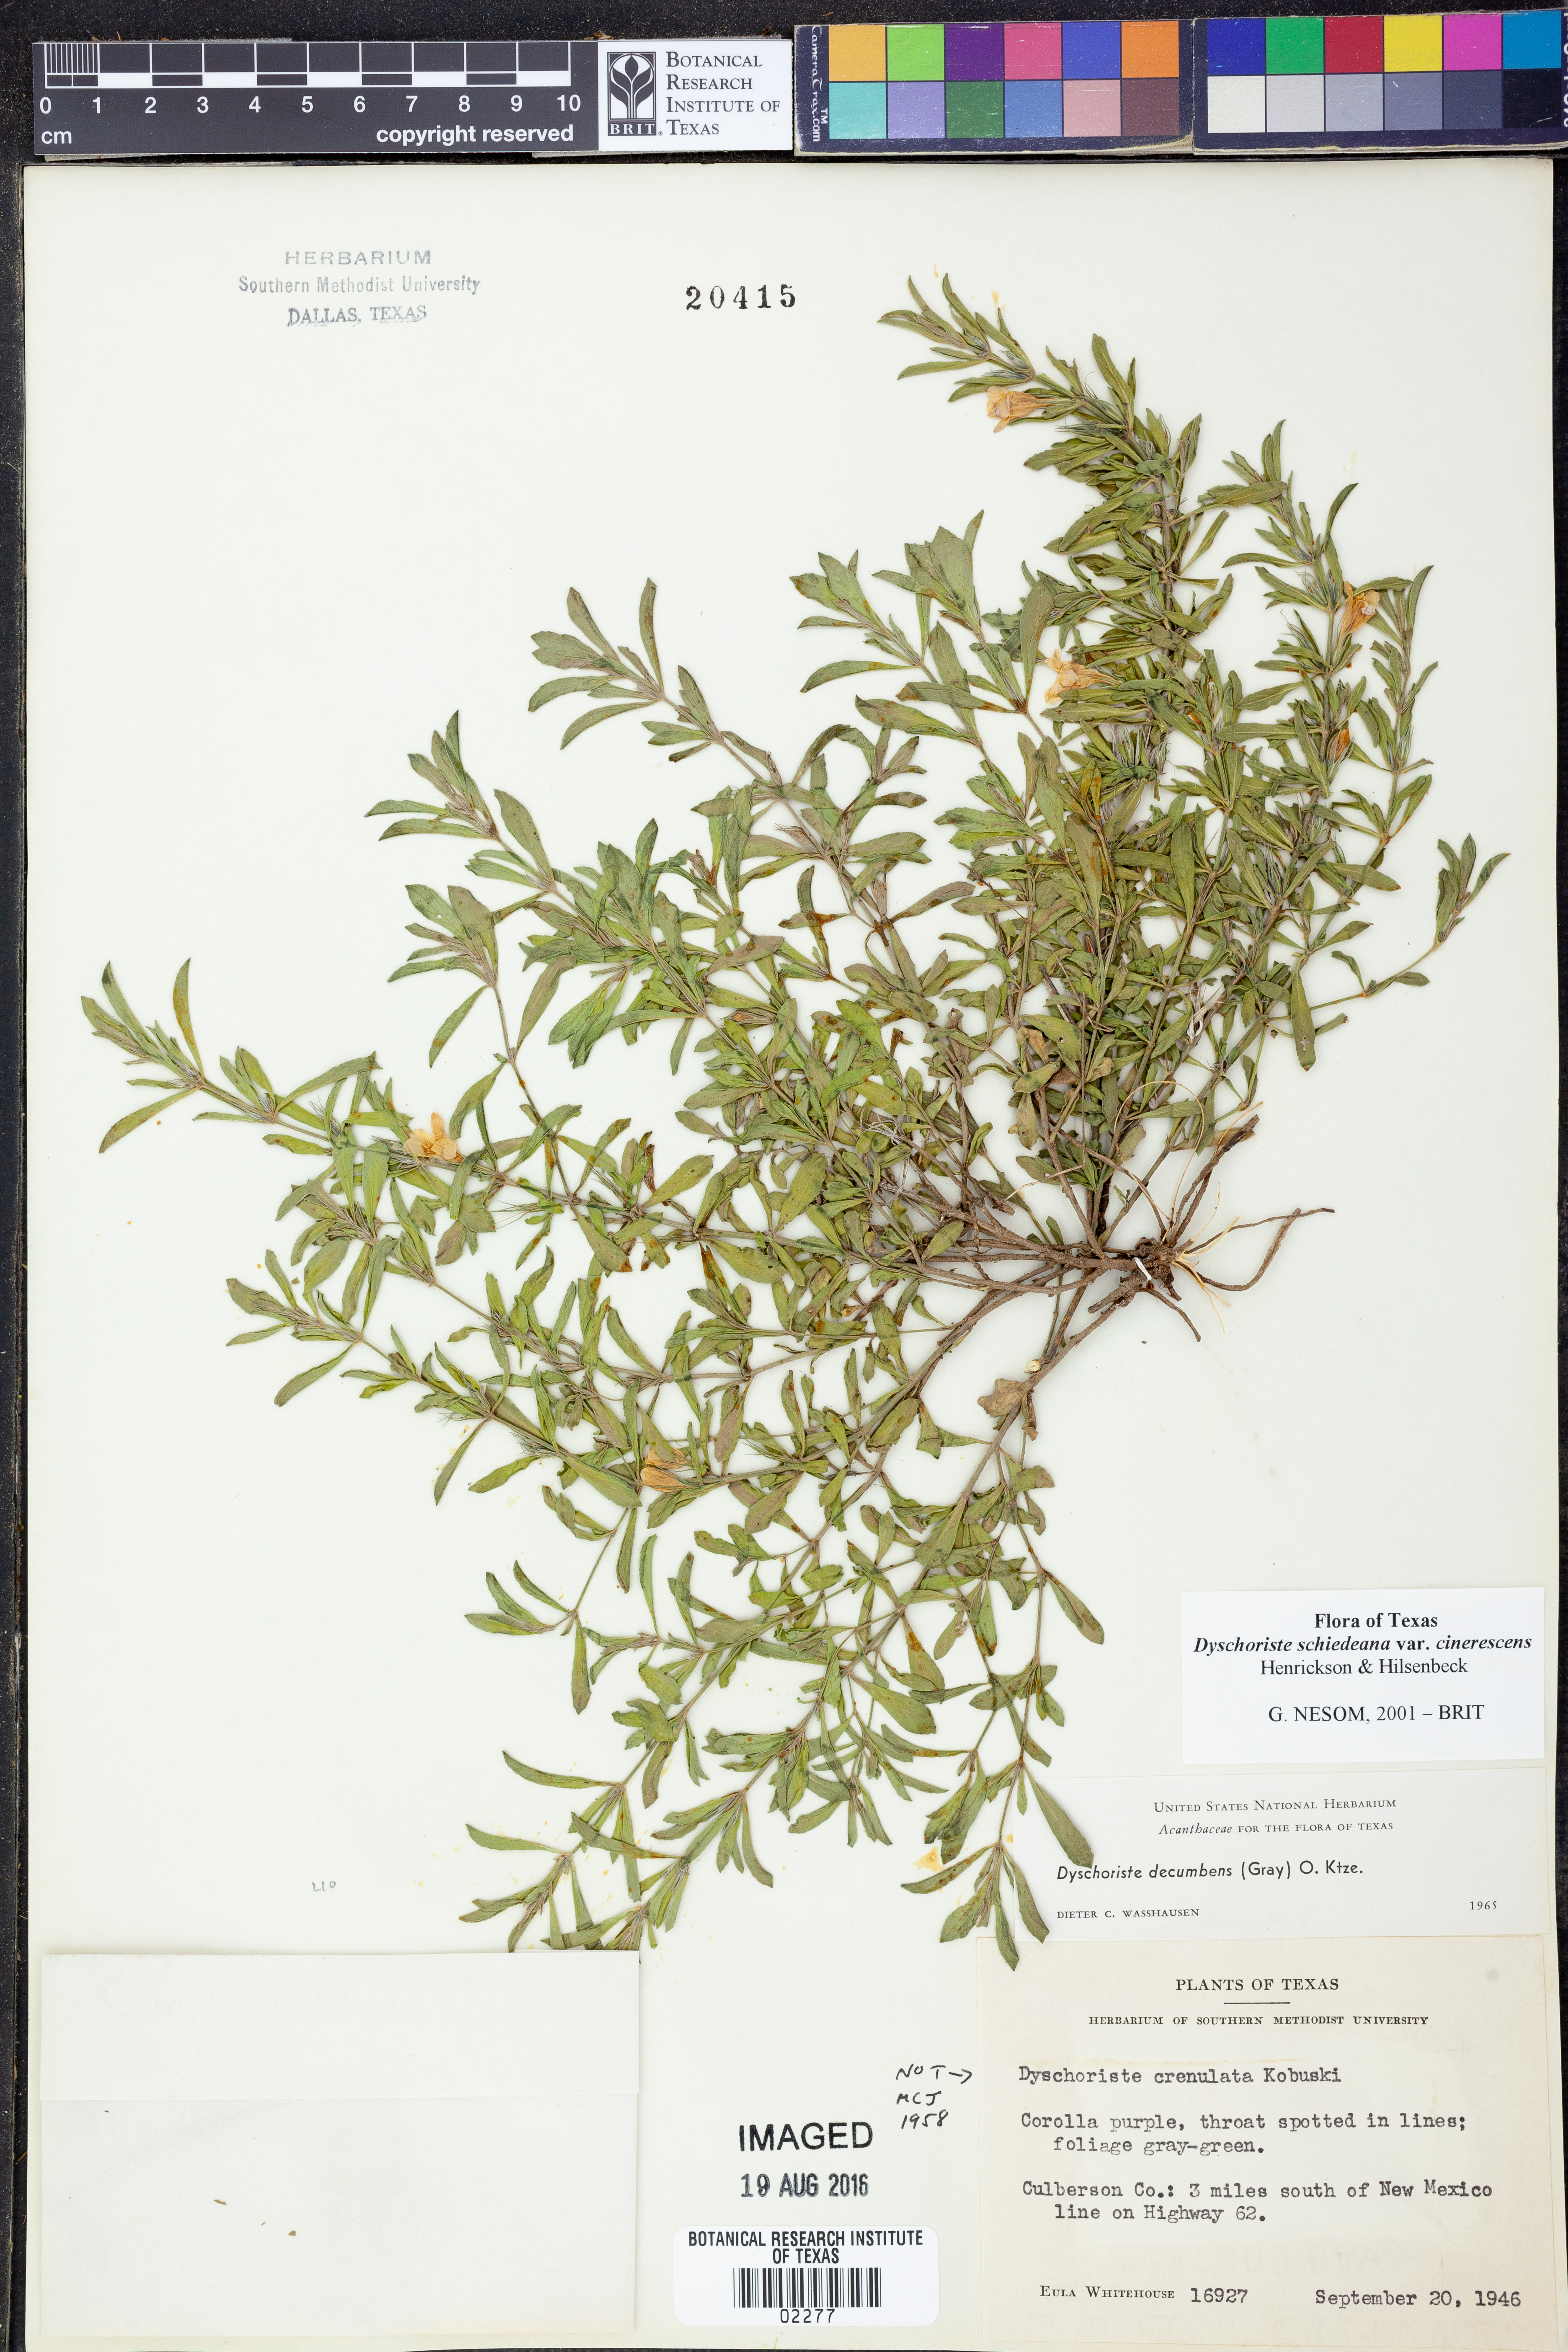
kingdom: Plantae
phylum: Tracheophyta
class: Magnoliopsida
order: Lamiales
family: Acanthaceae
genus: Dyschoriste
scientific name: Dyschoriste cinerascens
